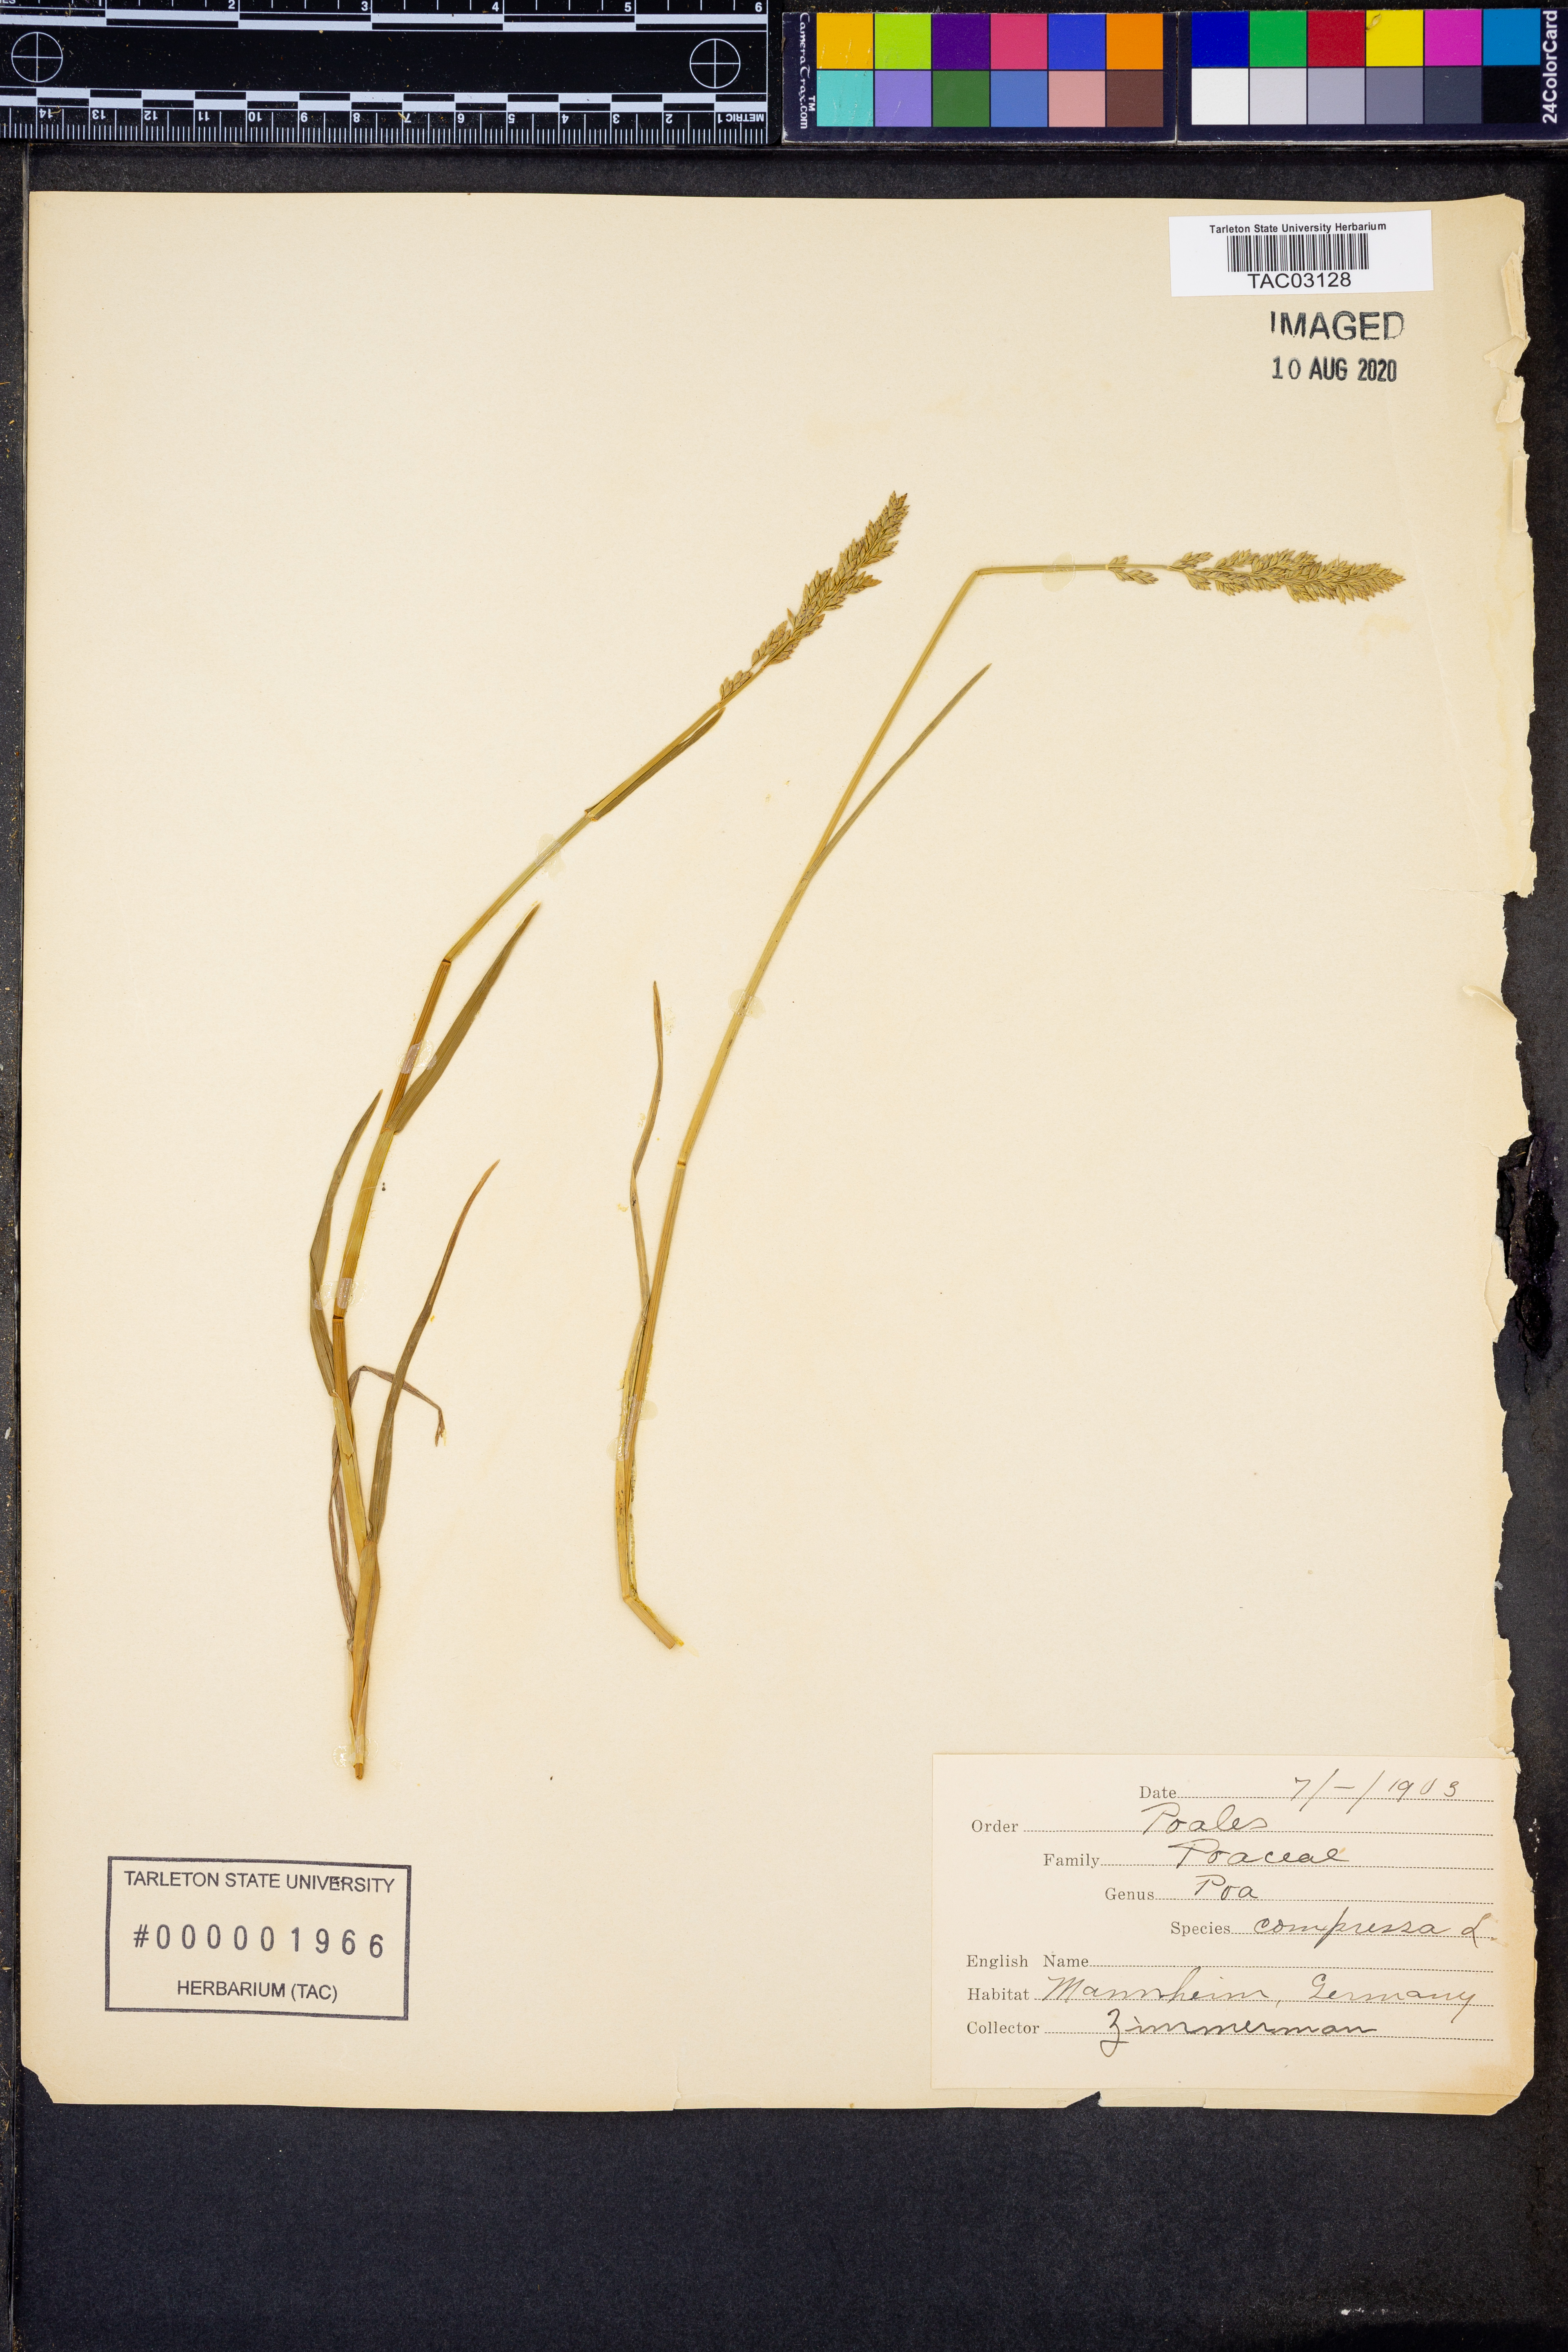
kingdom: Plantae
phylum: Tracheophyta
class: Liliopsida
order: Poales
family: Poaceae
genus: Poa
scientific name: Poa compressa
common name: Canada bluegrass
